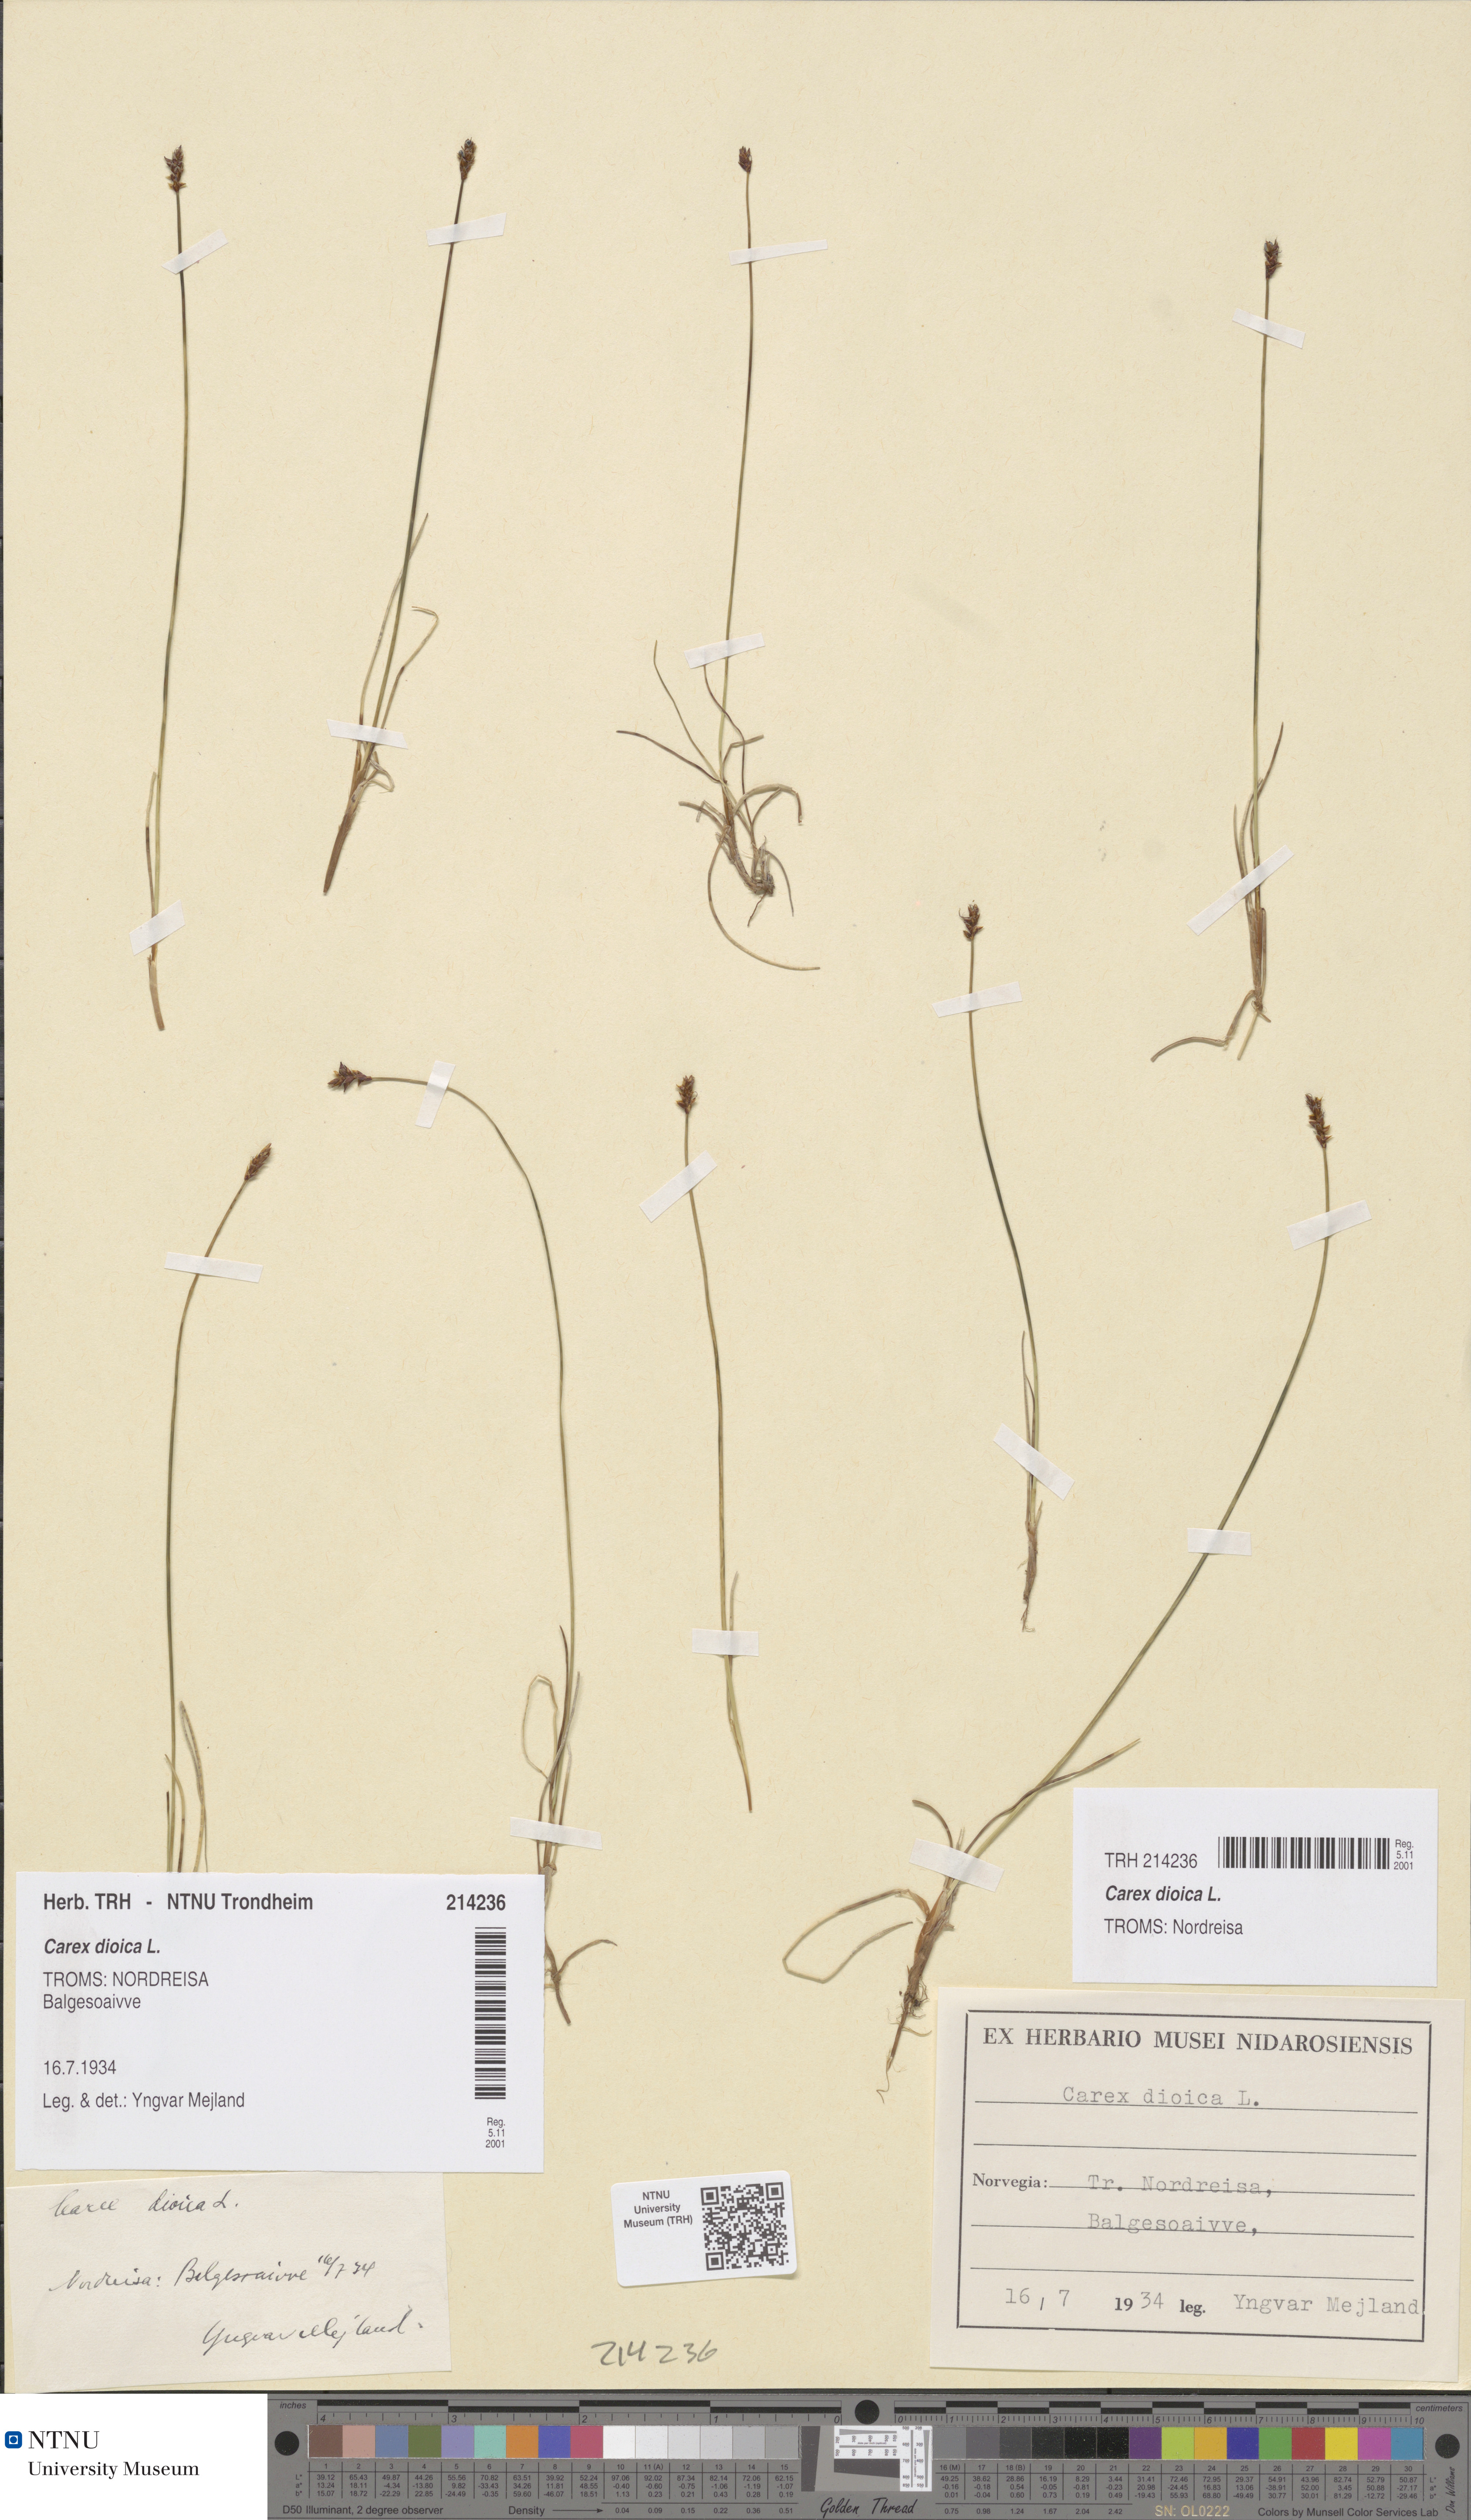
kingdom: Plantae
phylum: Tracheophyta
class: Liliopsida
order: Poales
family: Cyperaceae
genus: Carex
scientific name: Carex dioica
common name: Dioecious sedge
